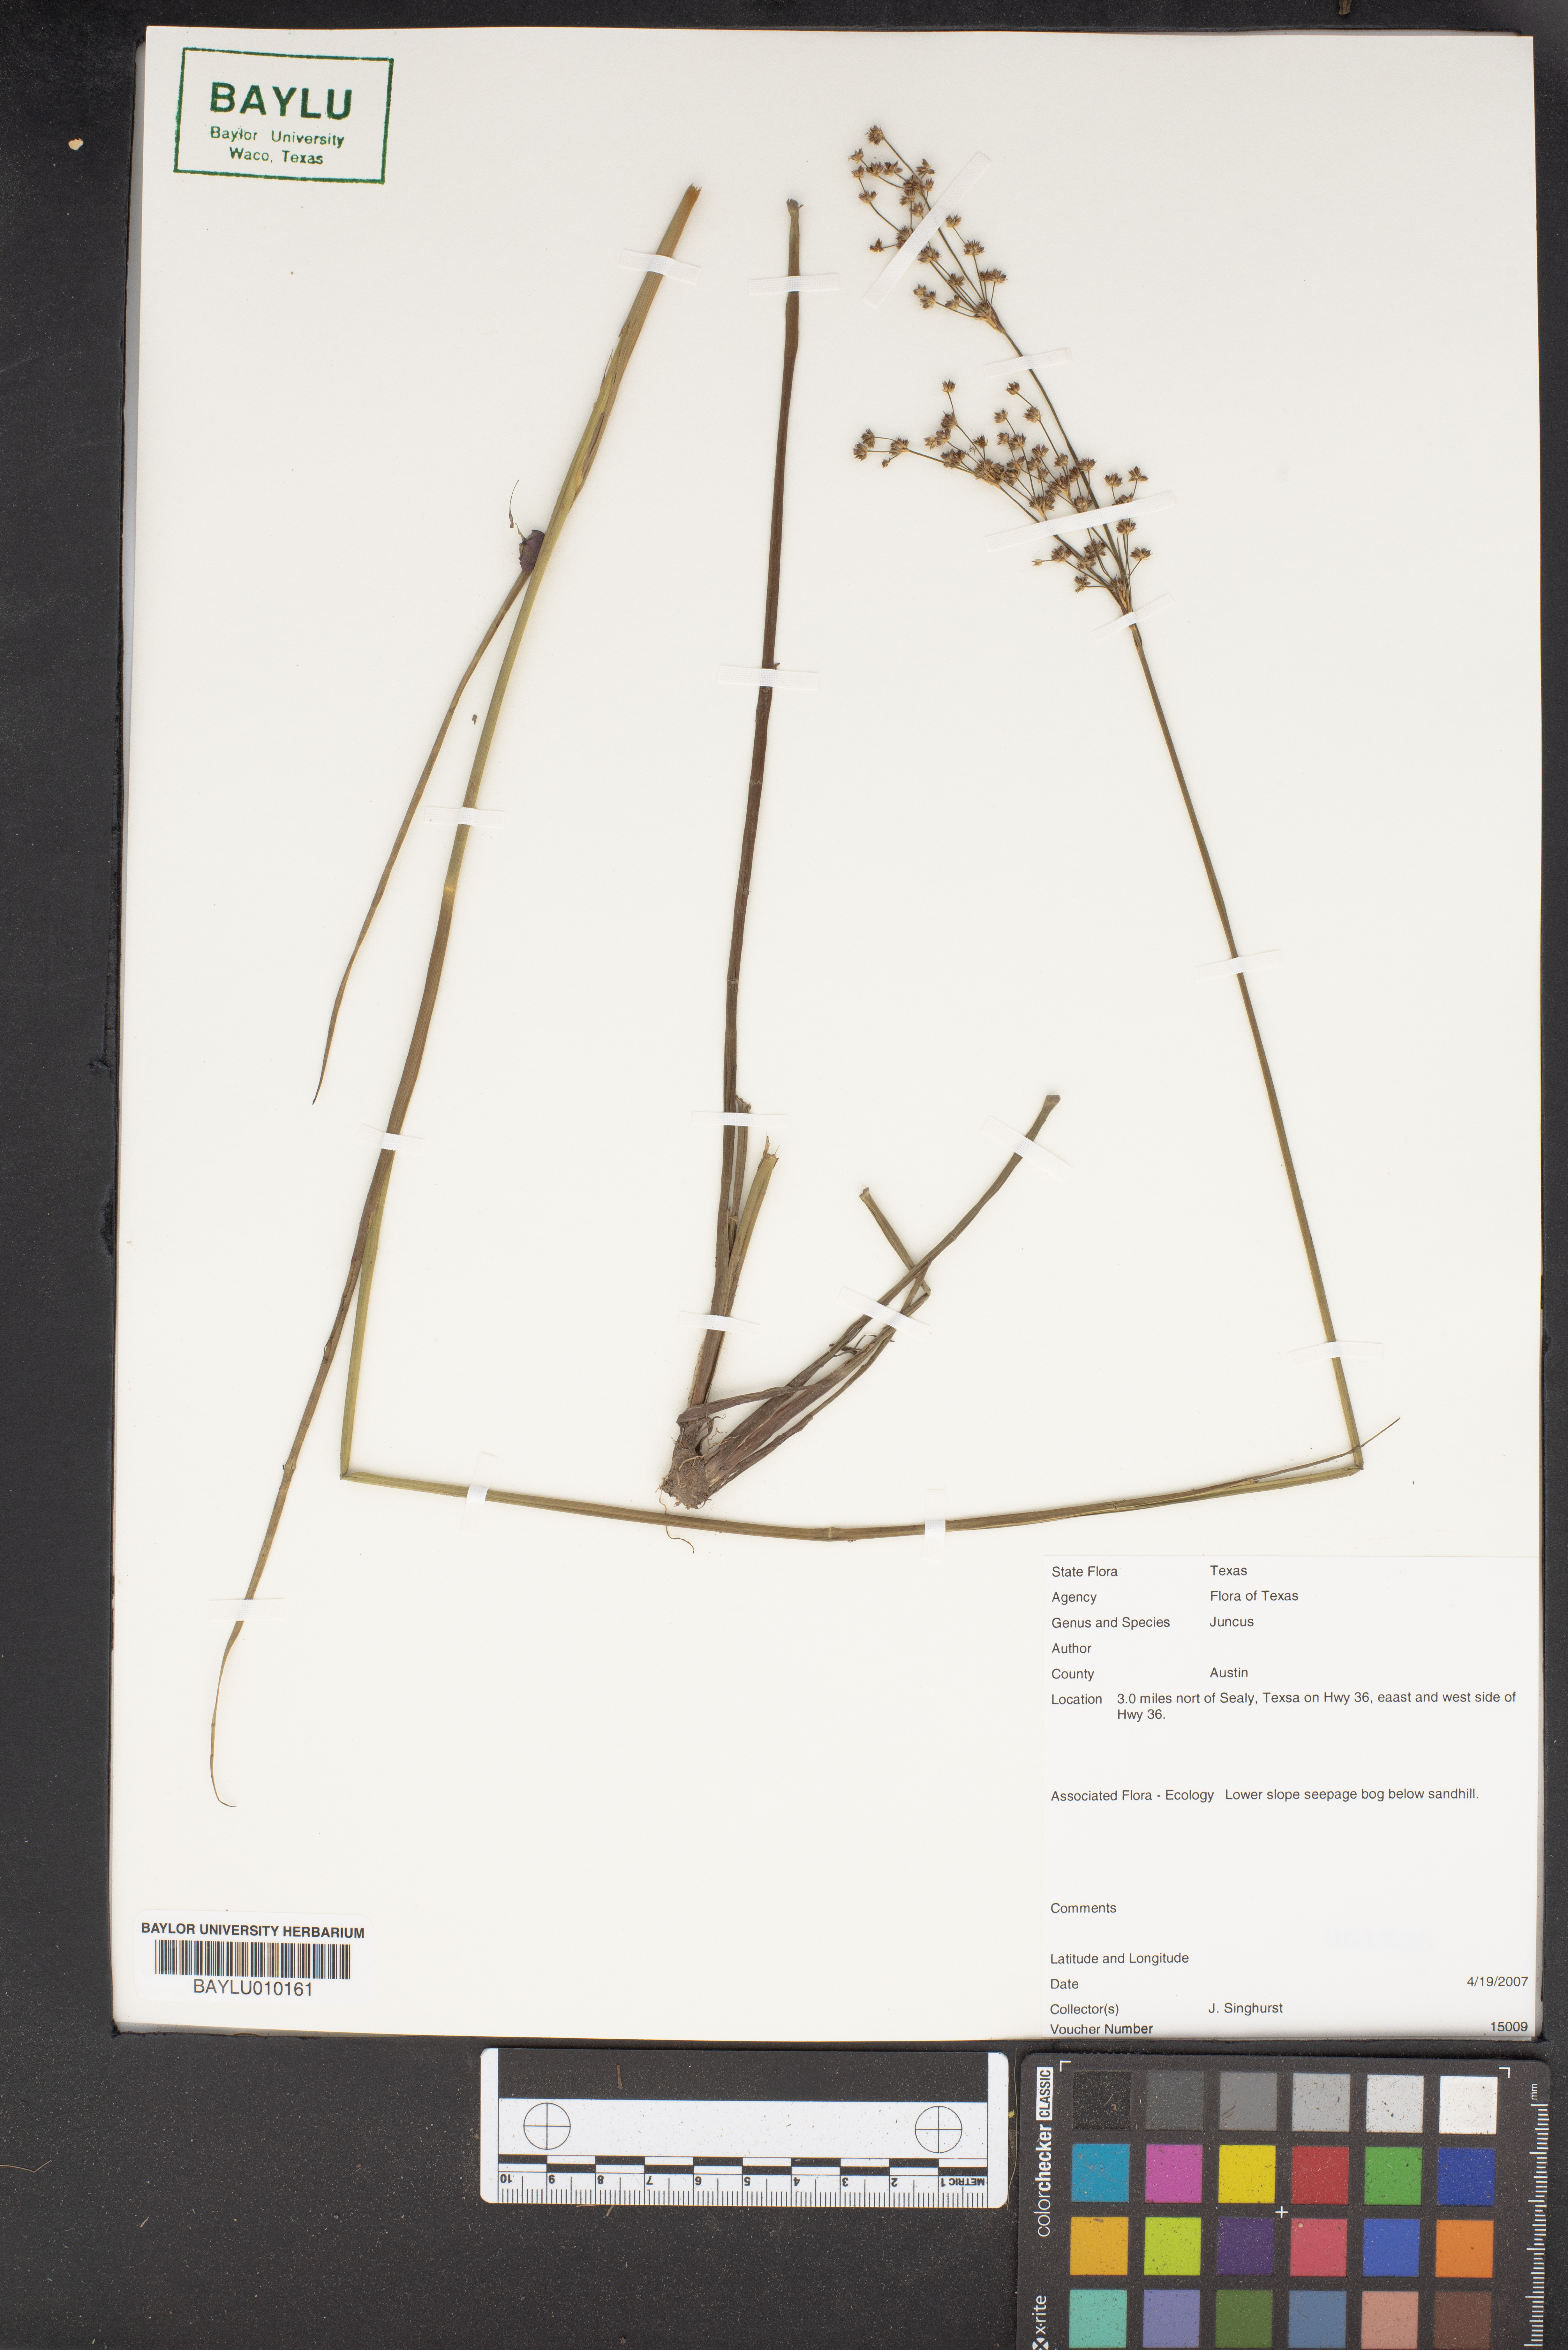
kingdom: Plantae
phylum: Tracheophyta
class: Liliopsida
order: Poales
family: Juncaceae
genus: Juncus
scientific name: Juncus
